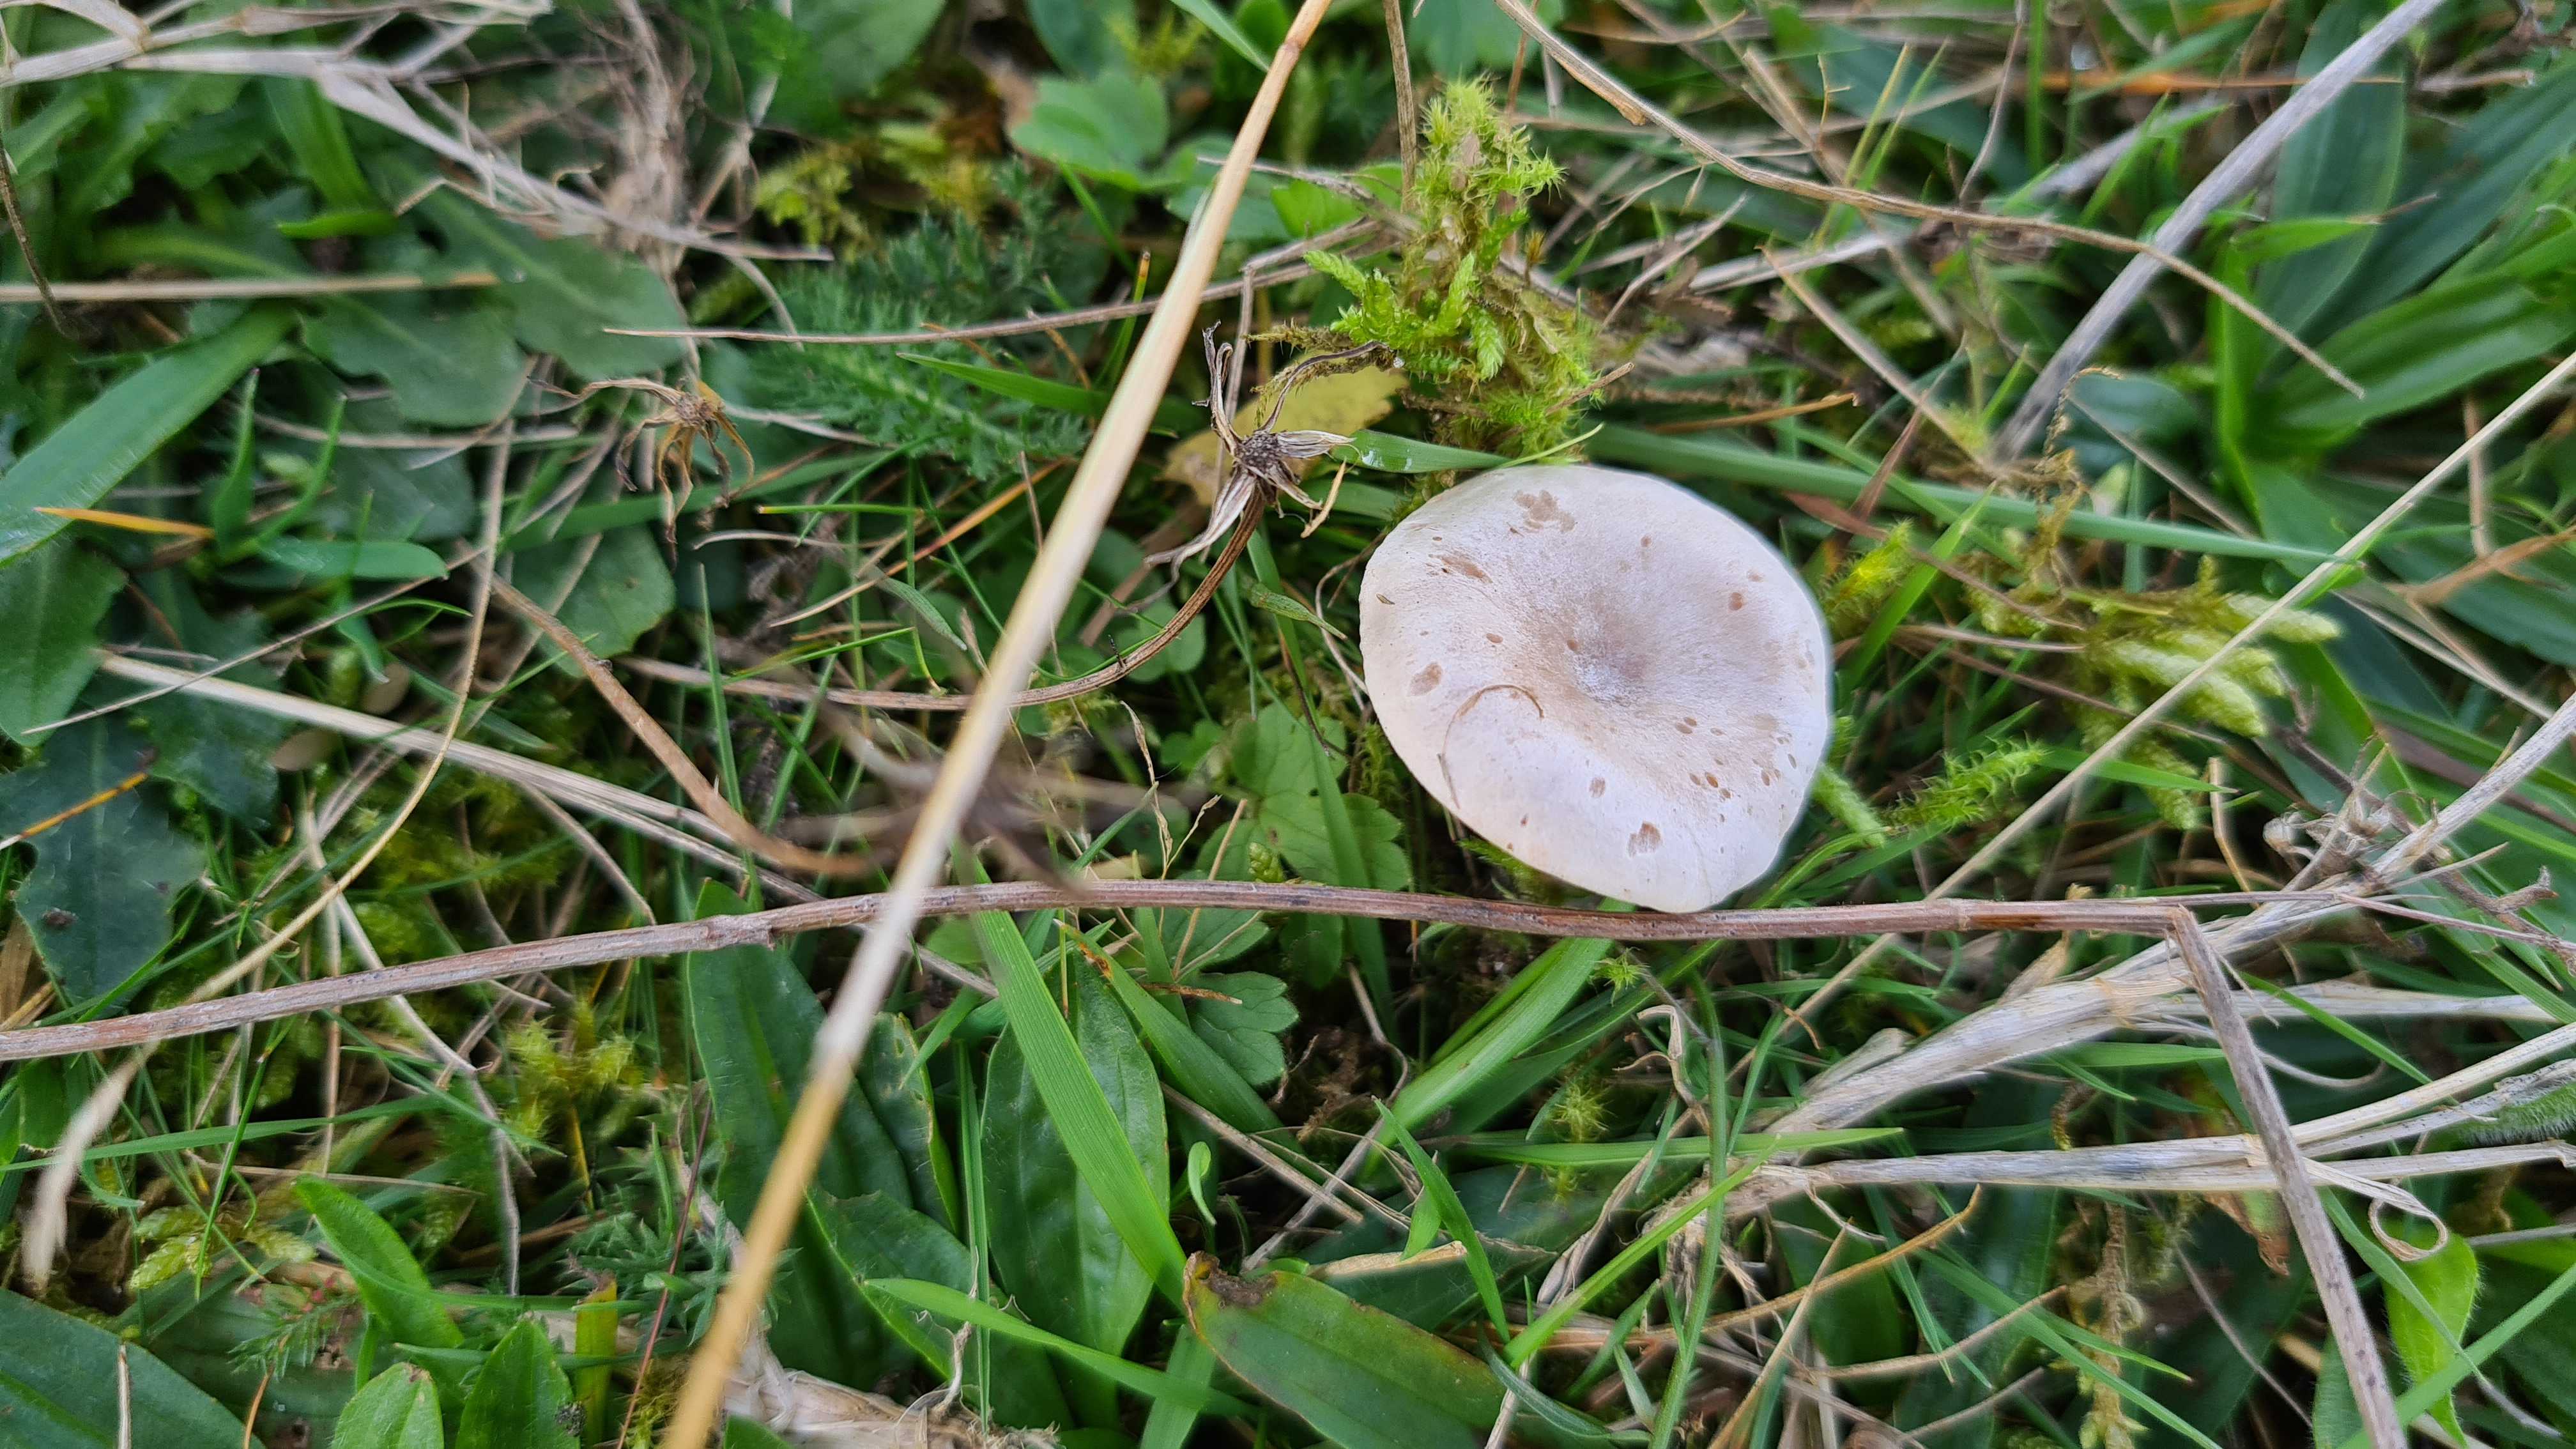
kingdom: Fungi
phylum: Basidiomycota
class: Agaricomycetes
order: Agaricales
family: Tricholomataceae
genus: Clitocybe
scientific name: Clitocybe rivulosa
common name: eng-tragthat
